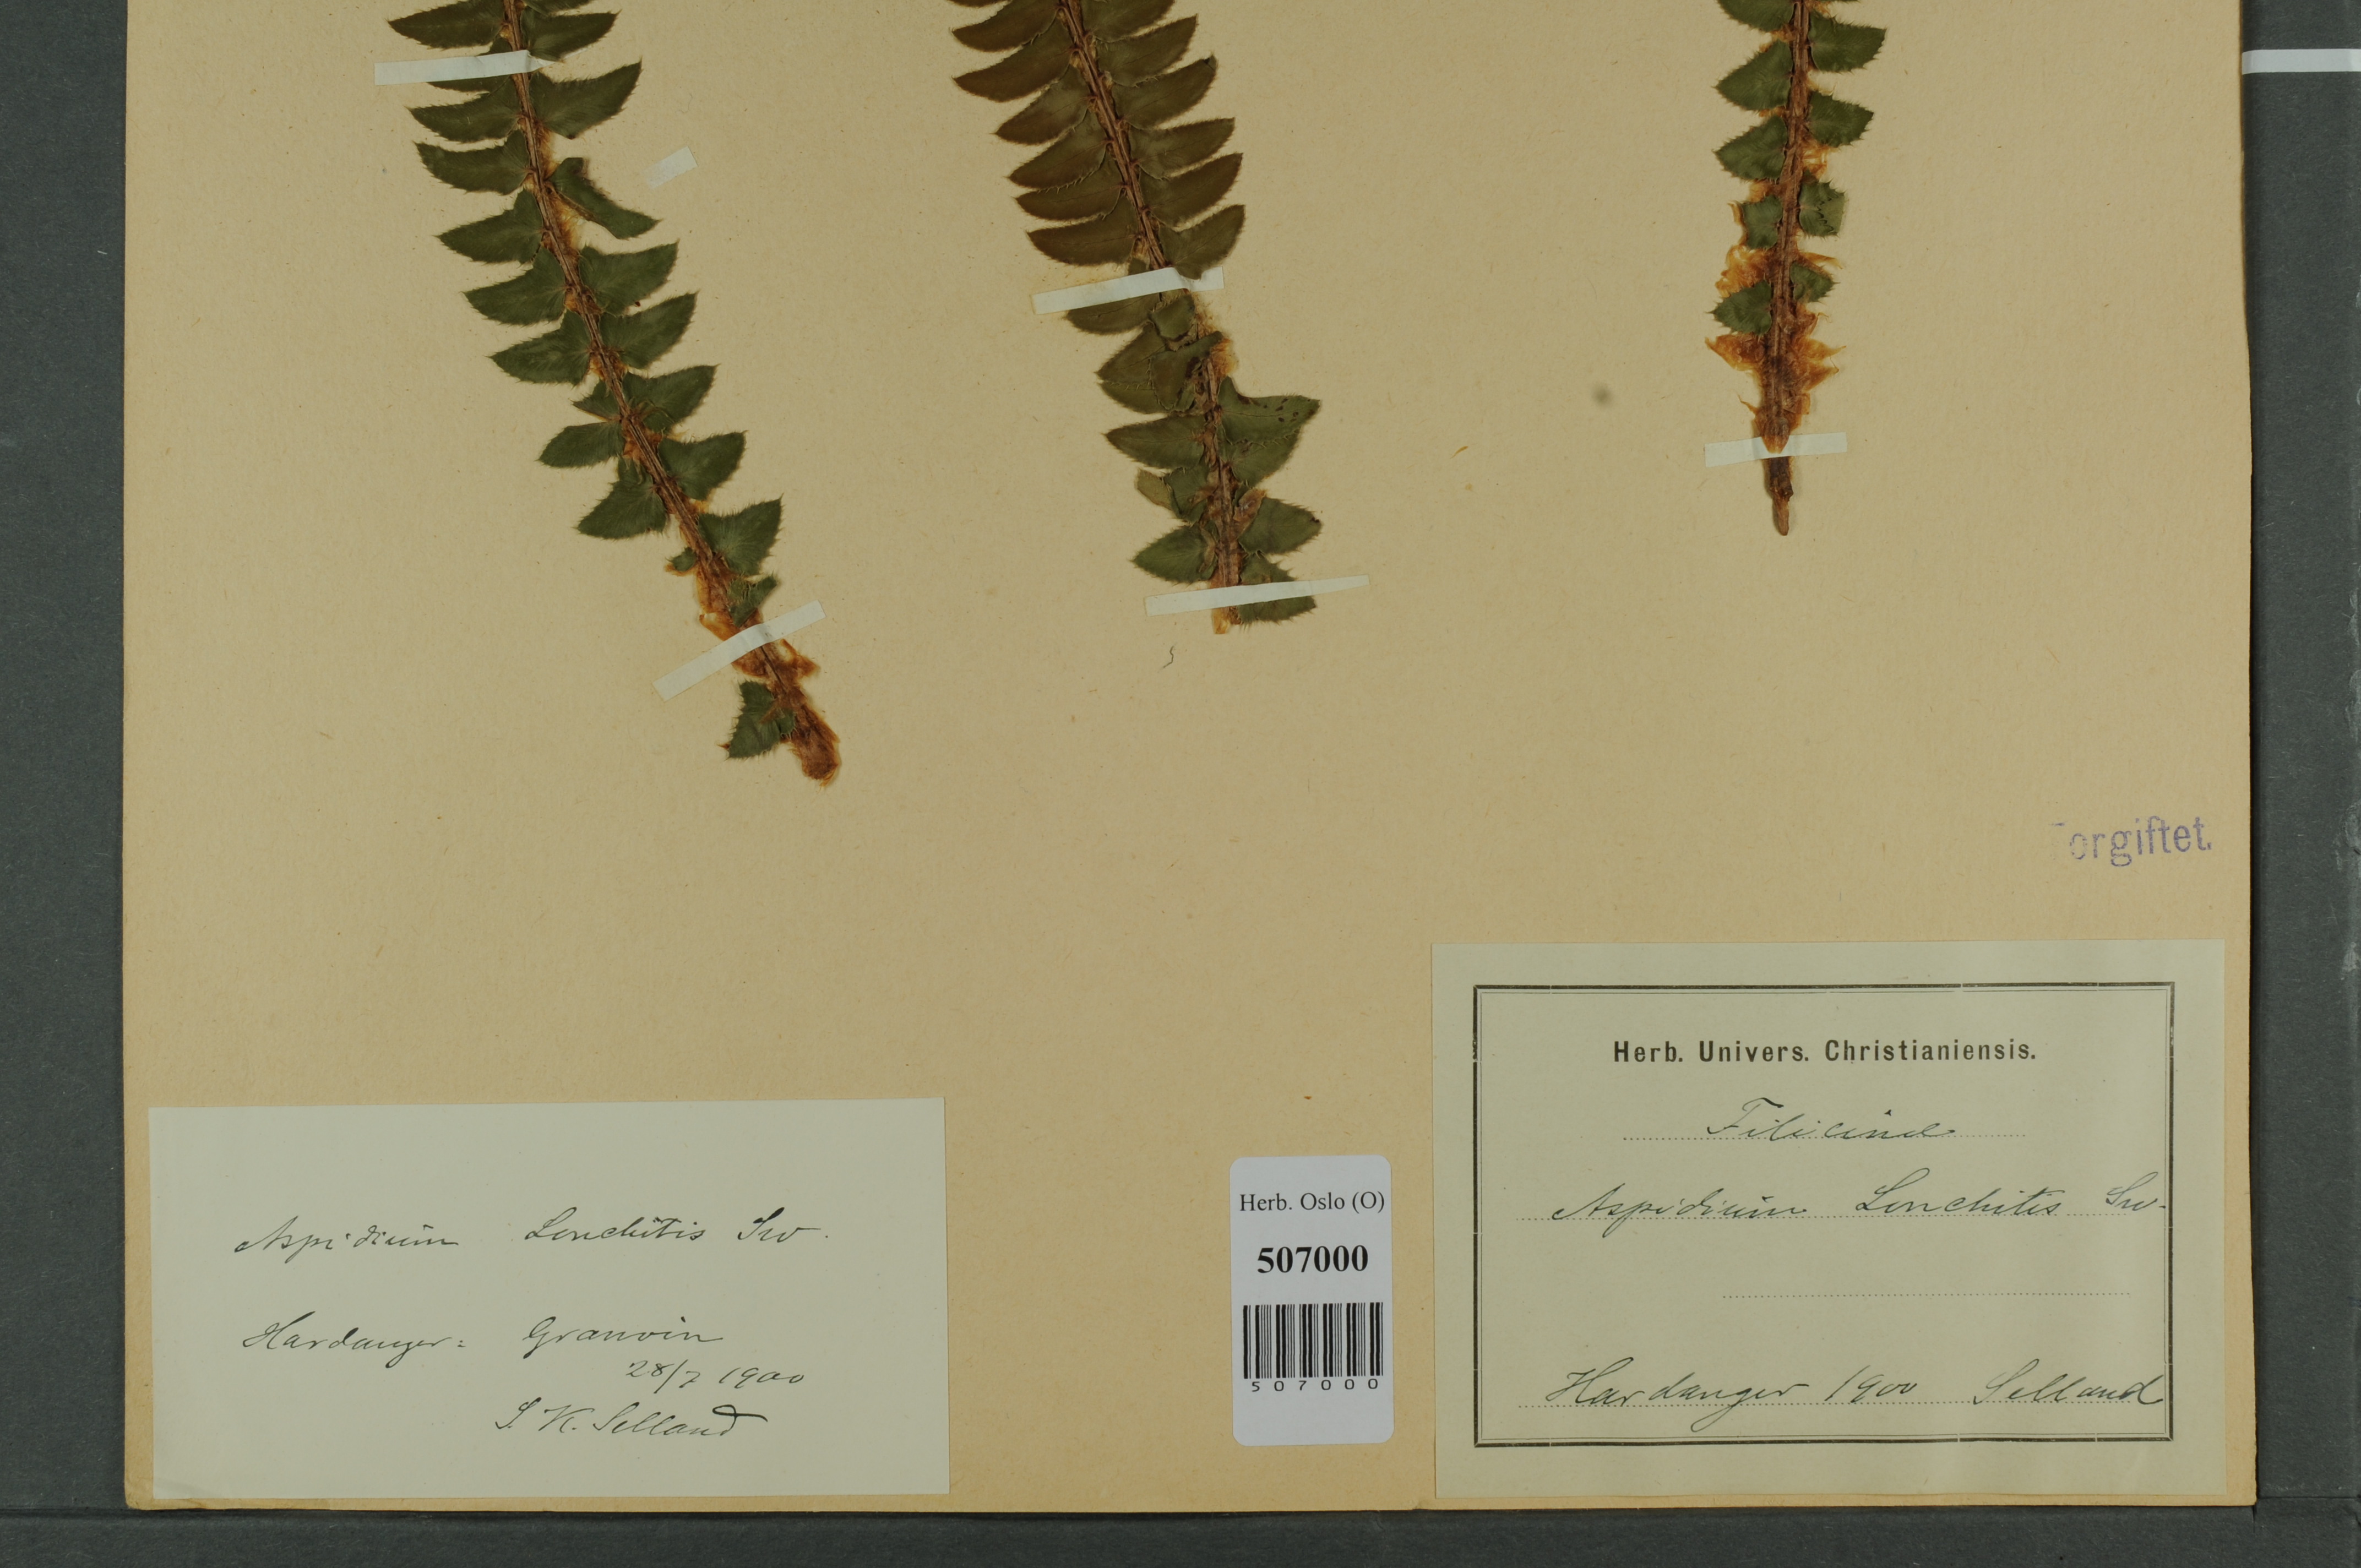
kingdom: Plantae
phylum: Tracheophyta
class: Polypodiopsida
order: Polypodiales
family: Dryopteridaceae
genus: Polystichum
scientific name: Polystichum lonchitis
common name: Holly fern
